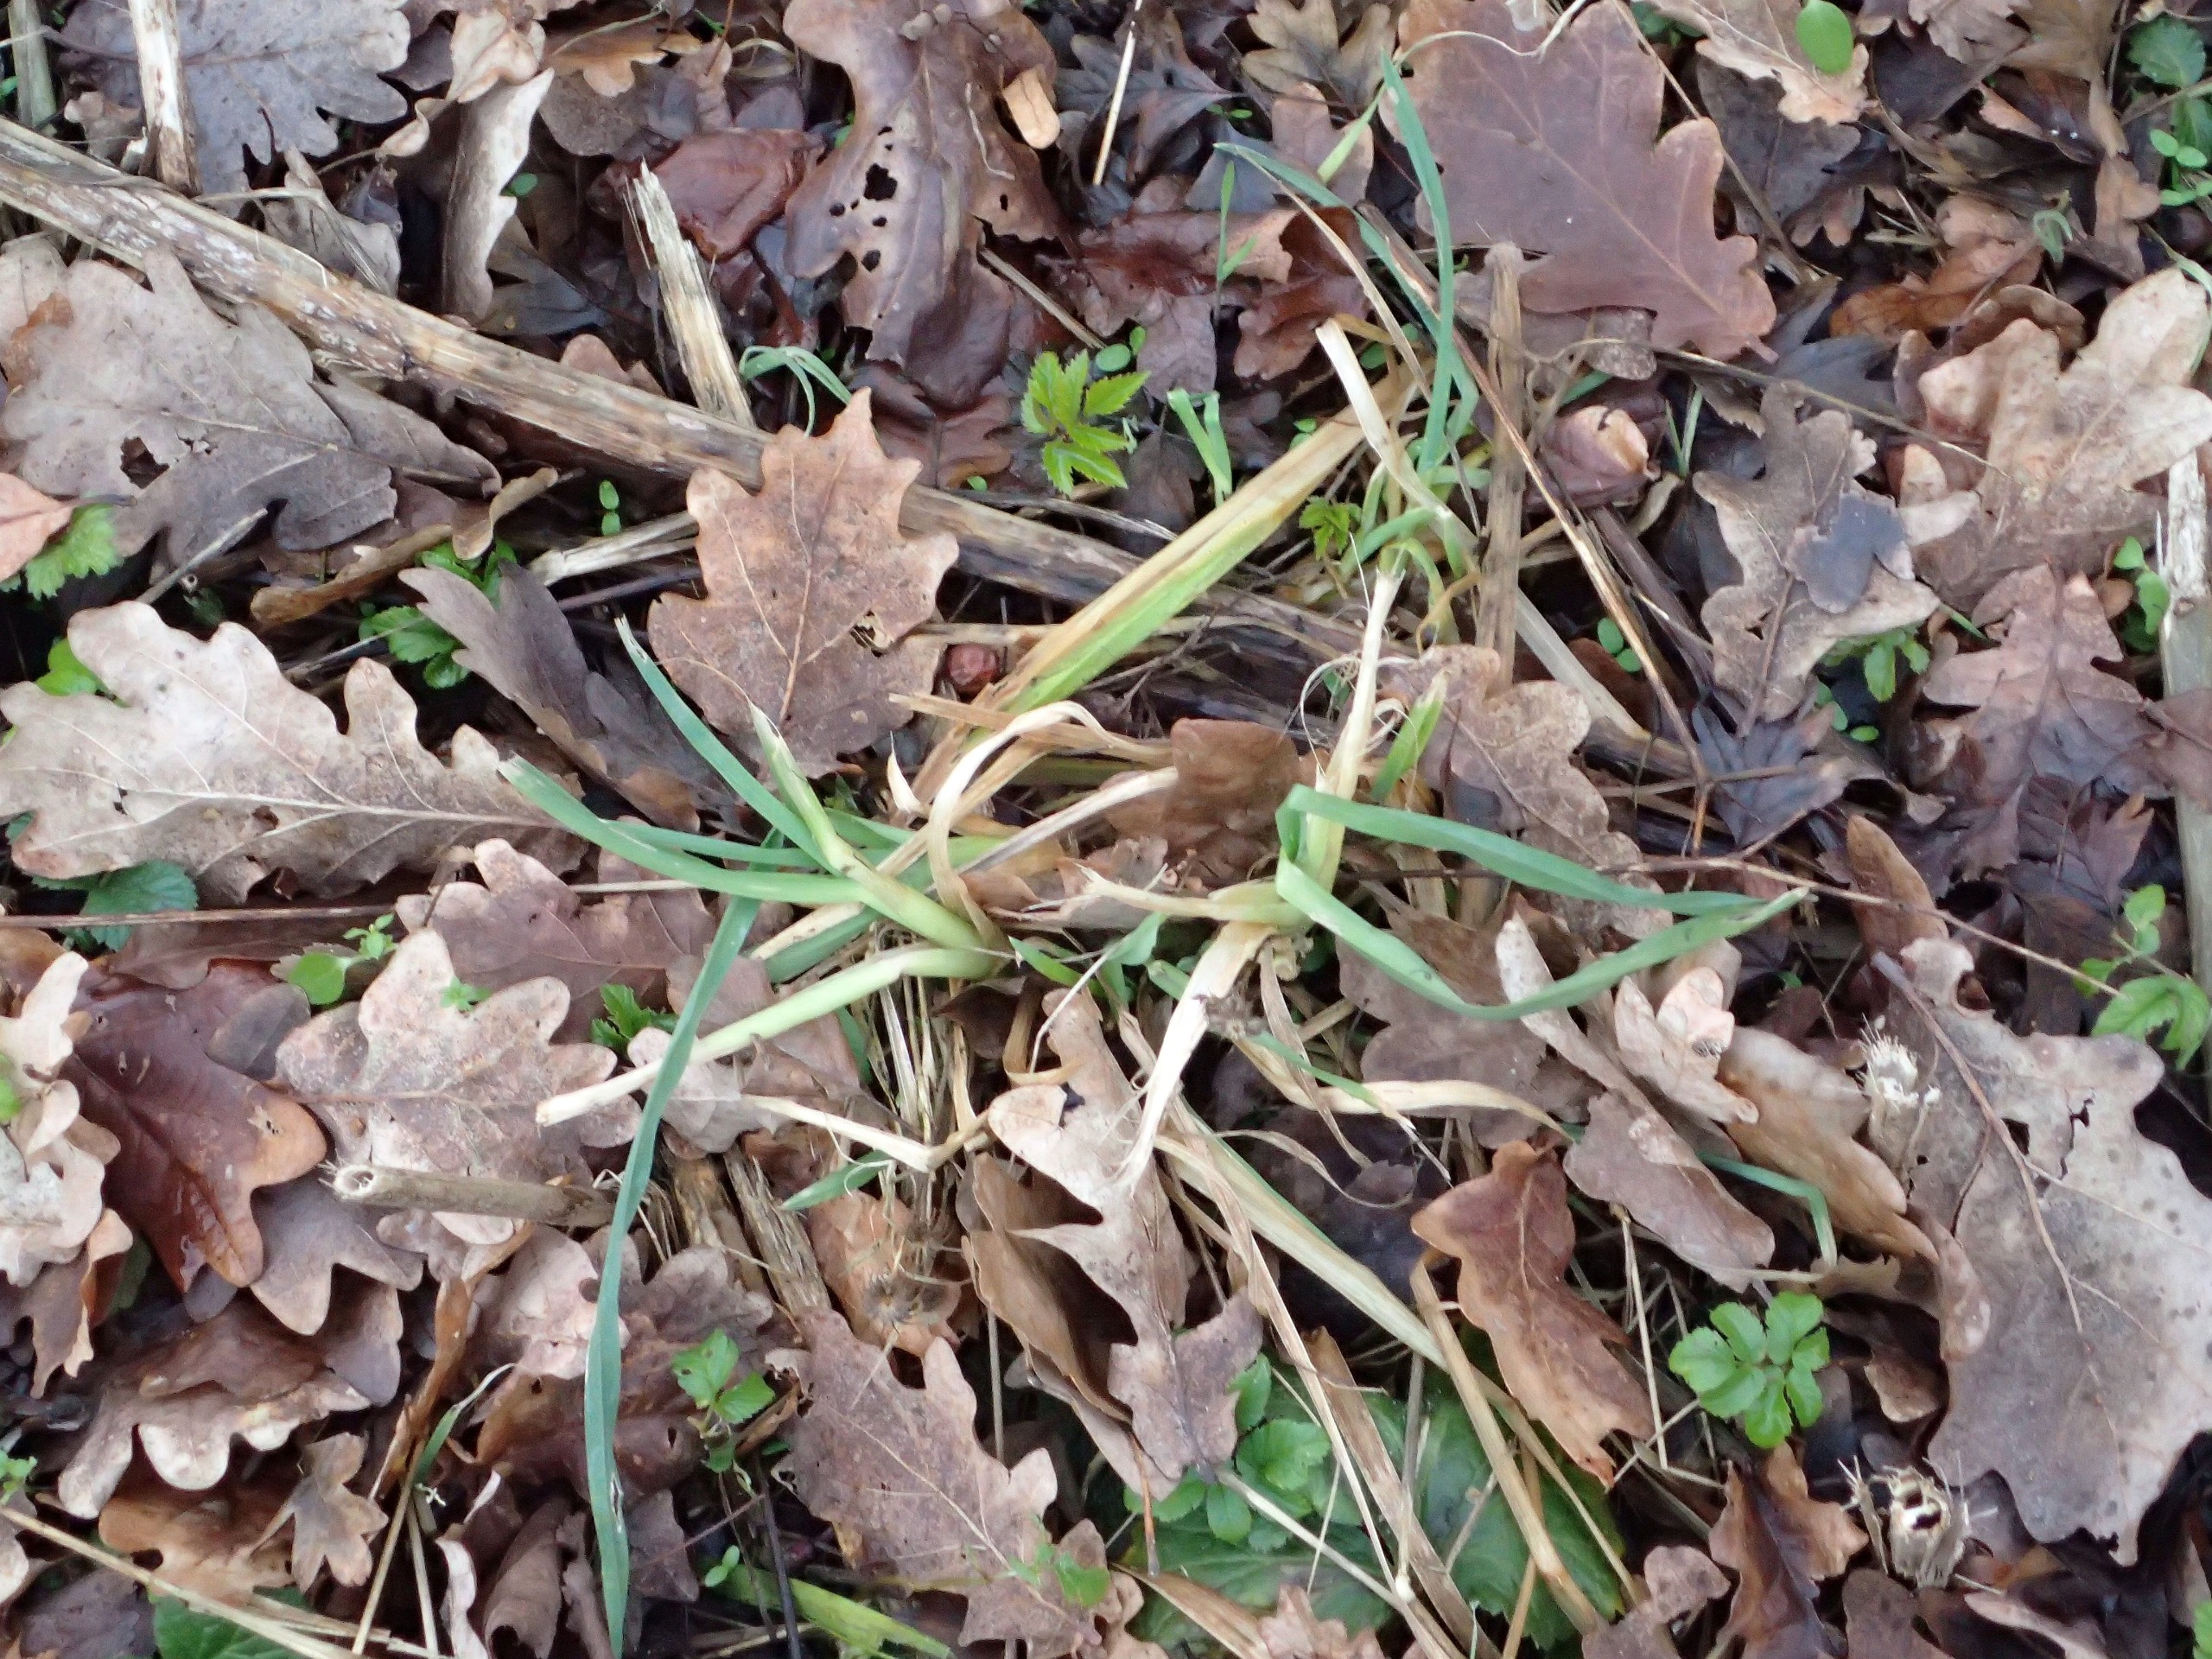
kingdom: Plantae
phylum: Tracheophyta
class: Liliopsida
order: Poales
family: Poaceae
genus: Dactylis
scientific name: Dactylis glomerata
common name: Almindelig hundegræs
